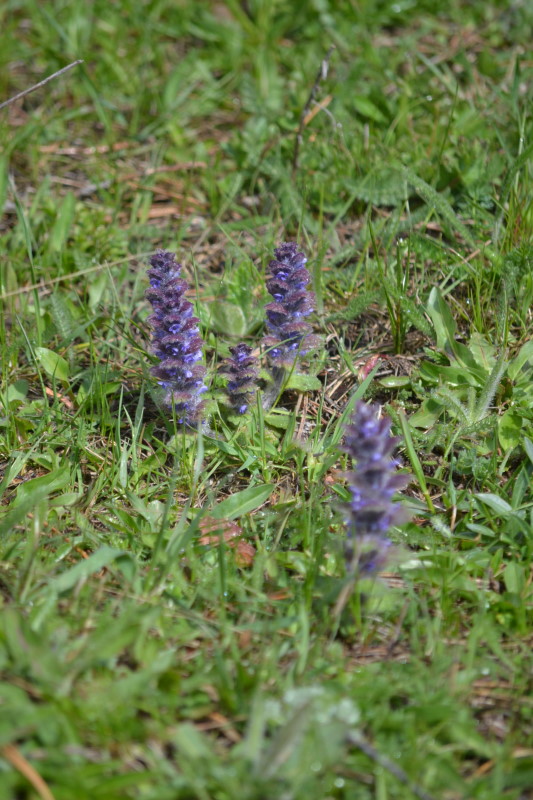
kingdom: Plantae
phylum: Tracheophyta
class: Magnoliopsida
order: Lamiales
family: Lamiaceae
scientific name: Lamiaceae
